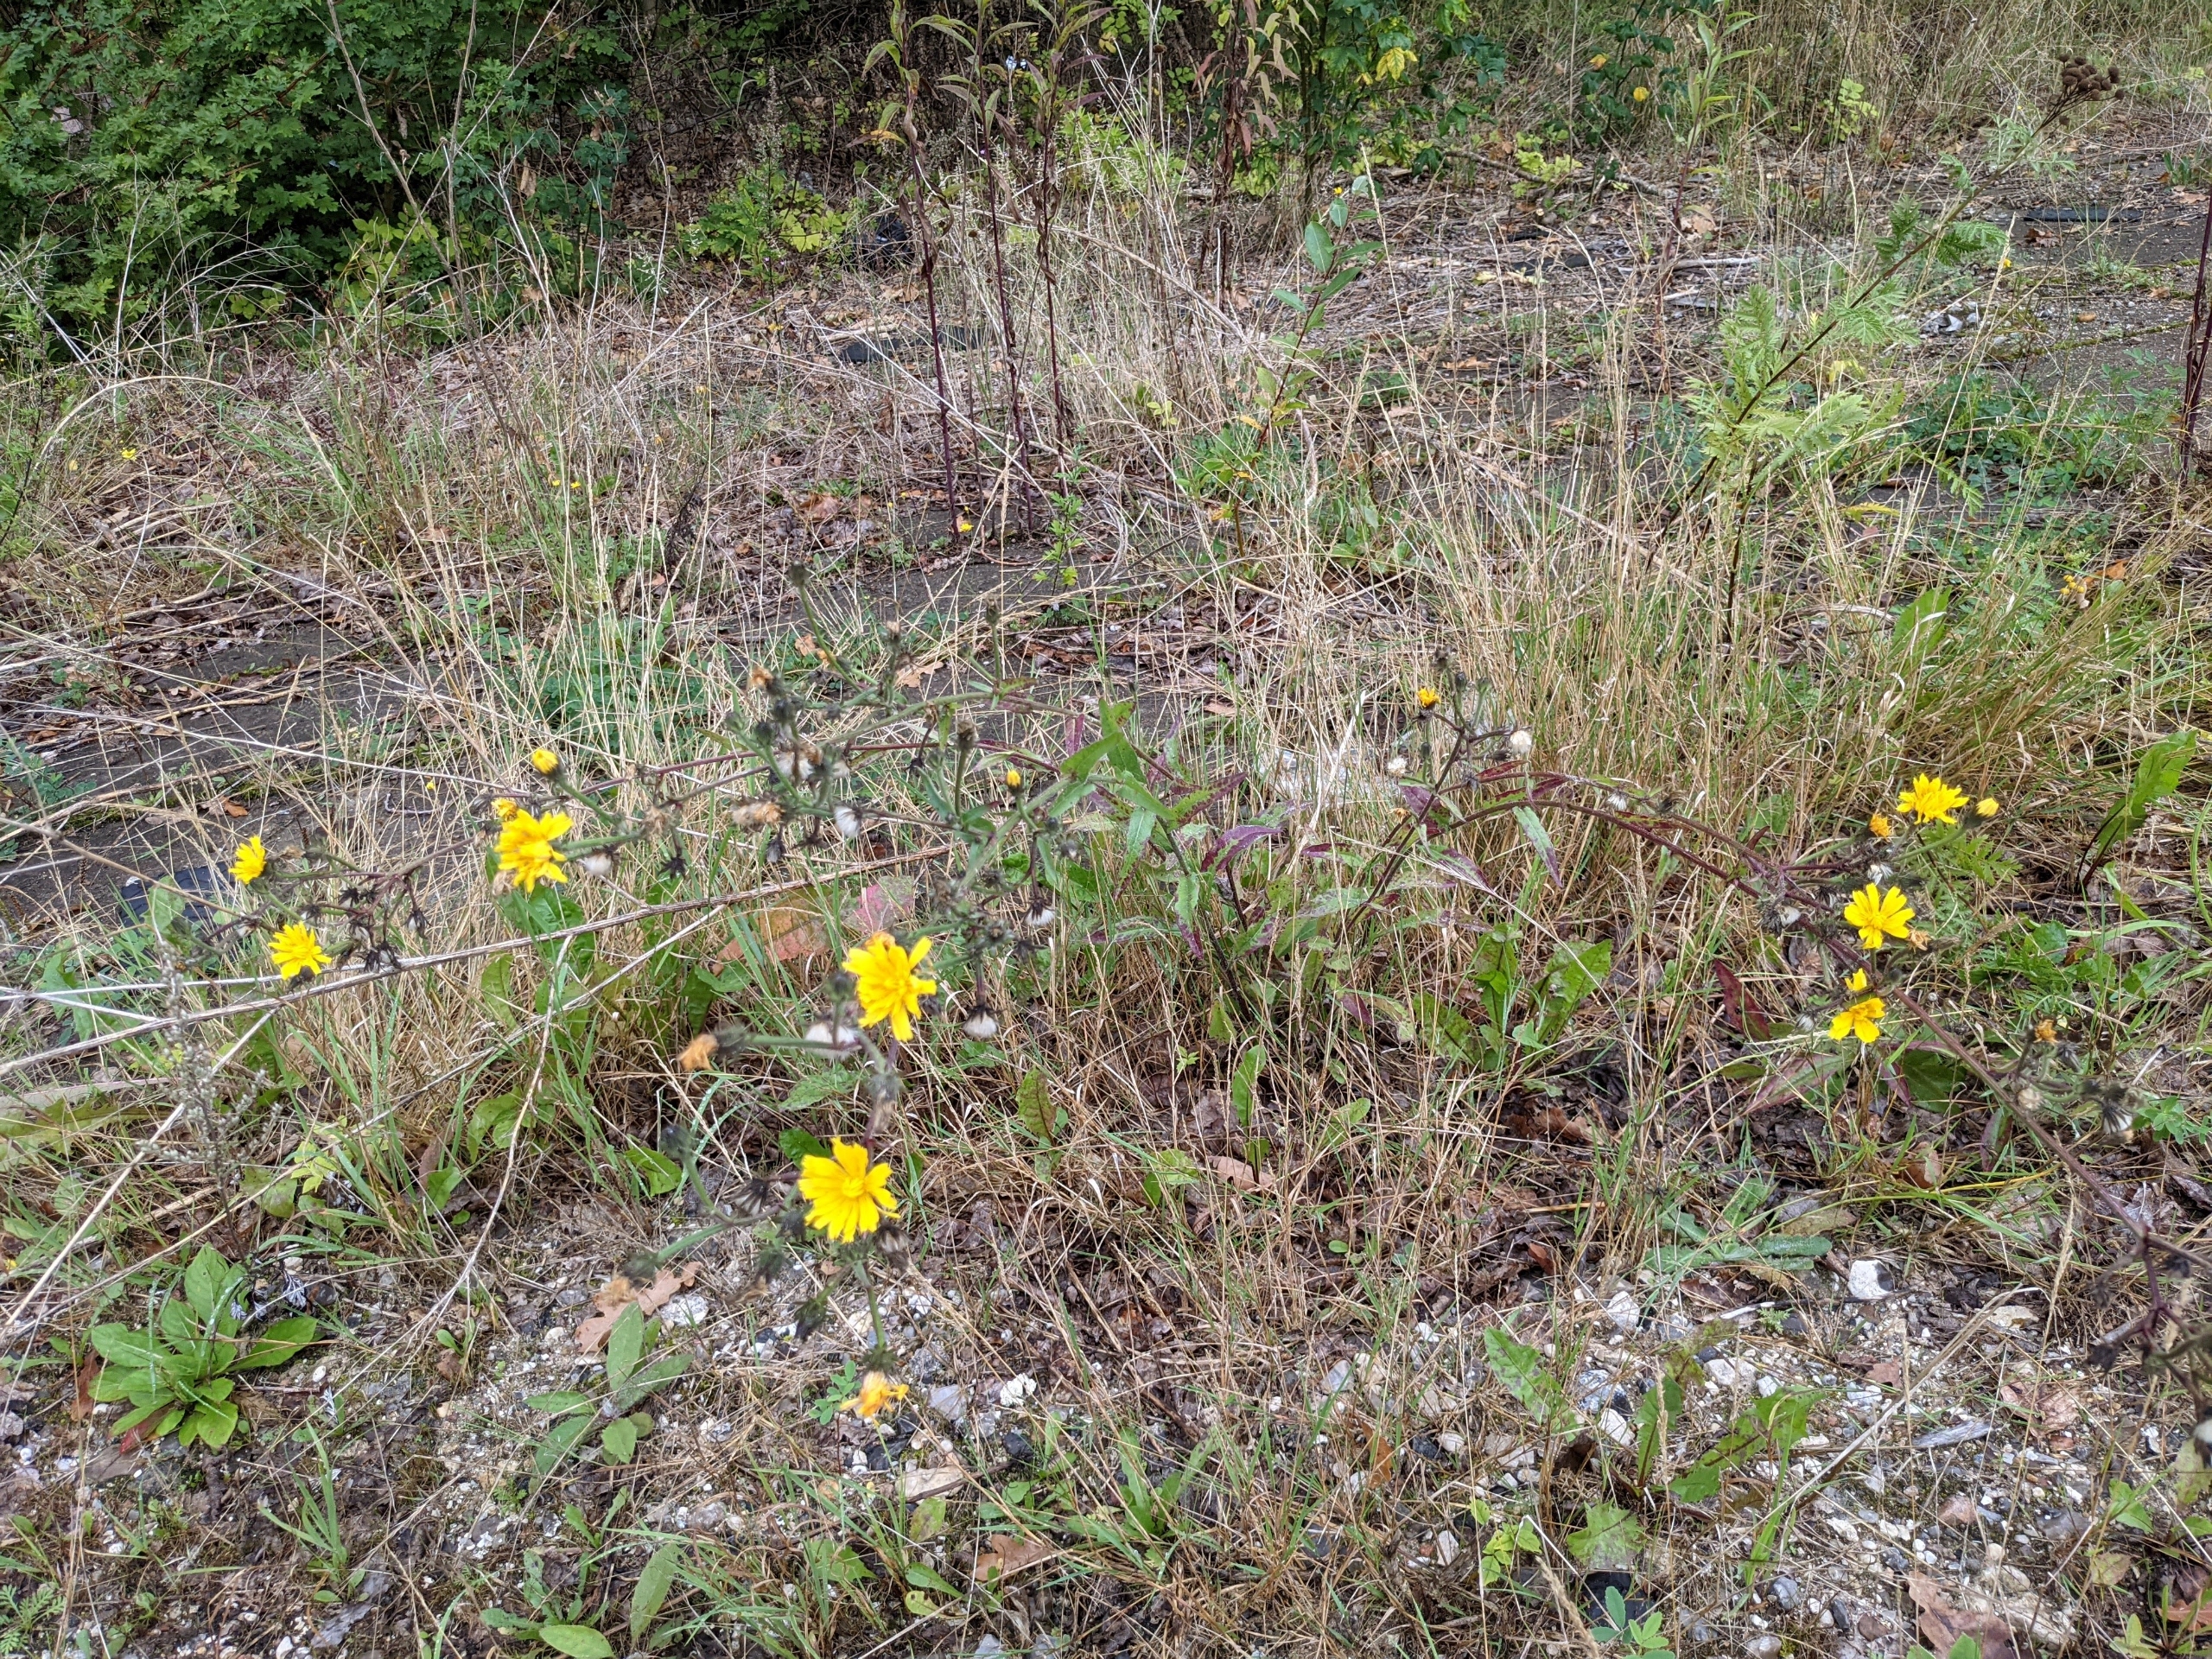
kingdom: Plantae
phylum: Tracheophyta
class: Magnoliopsida
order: Asterales
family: Asteraceae
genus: Picris
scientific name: Picris hieracioides
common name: Ru bittermælk
